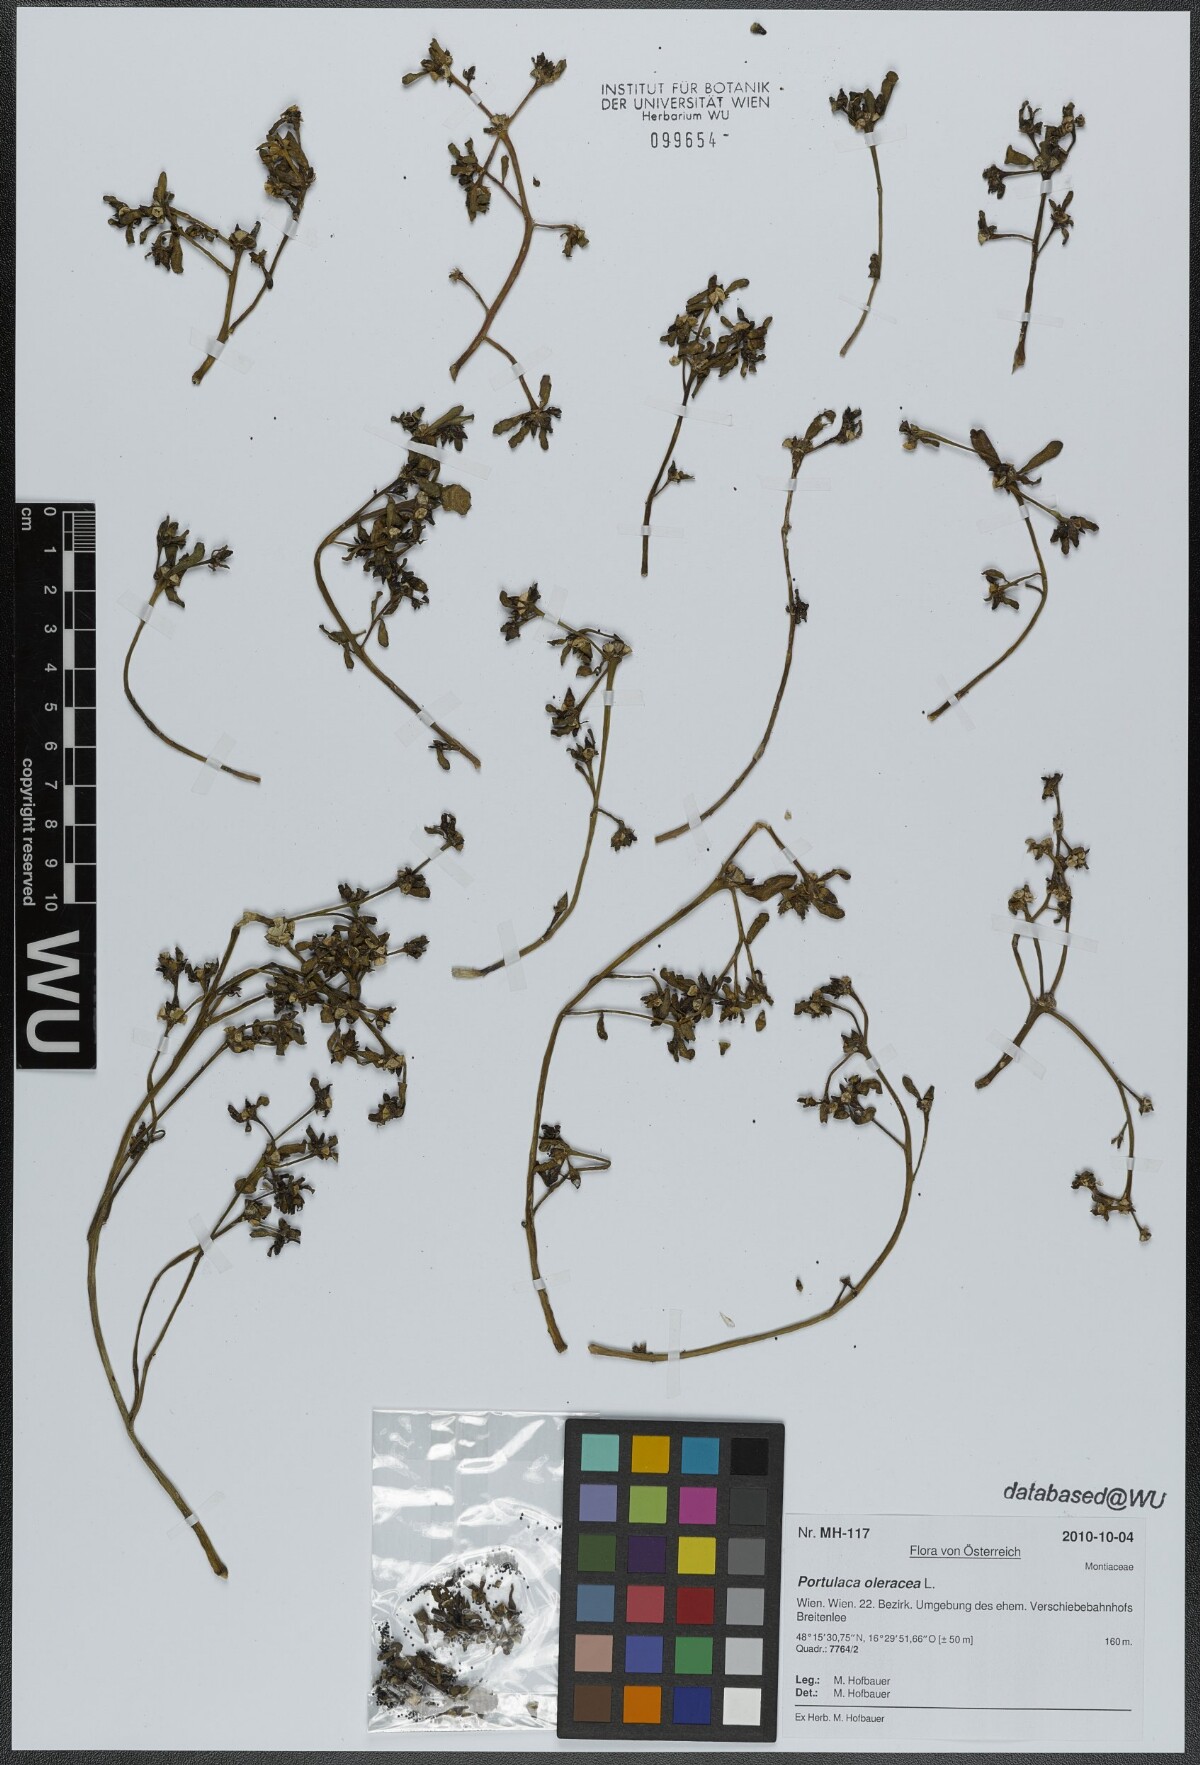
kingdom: Plantae
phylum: Tracheophyta
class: Magnoliopsida
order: Caryophyllales
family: Portulacaceae
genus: Portulaca
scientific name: Portulaca oleracea
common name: Common purslane
